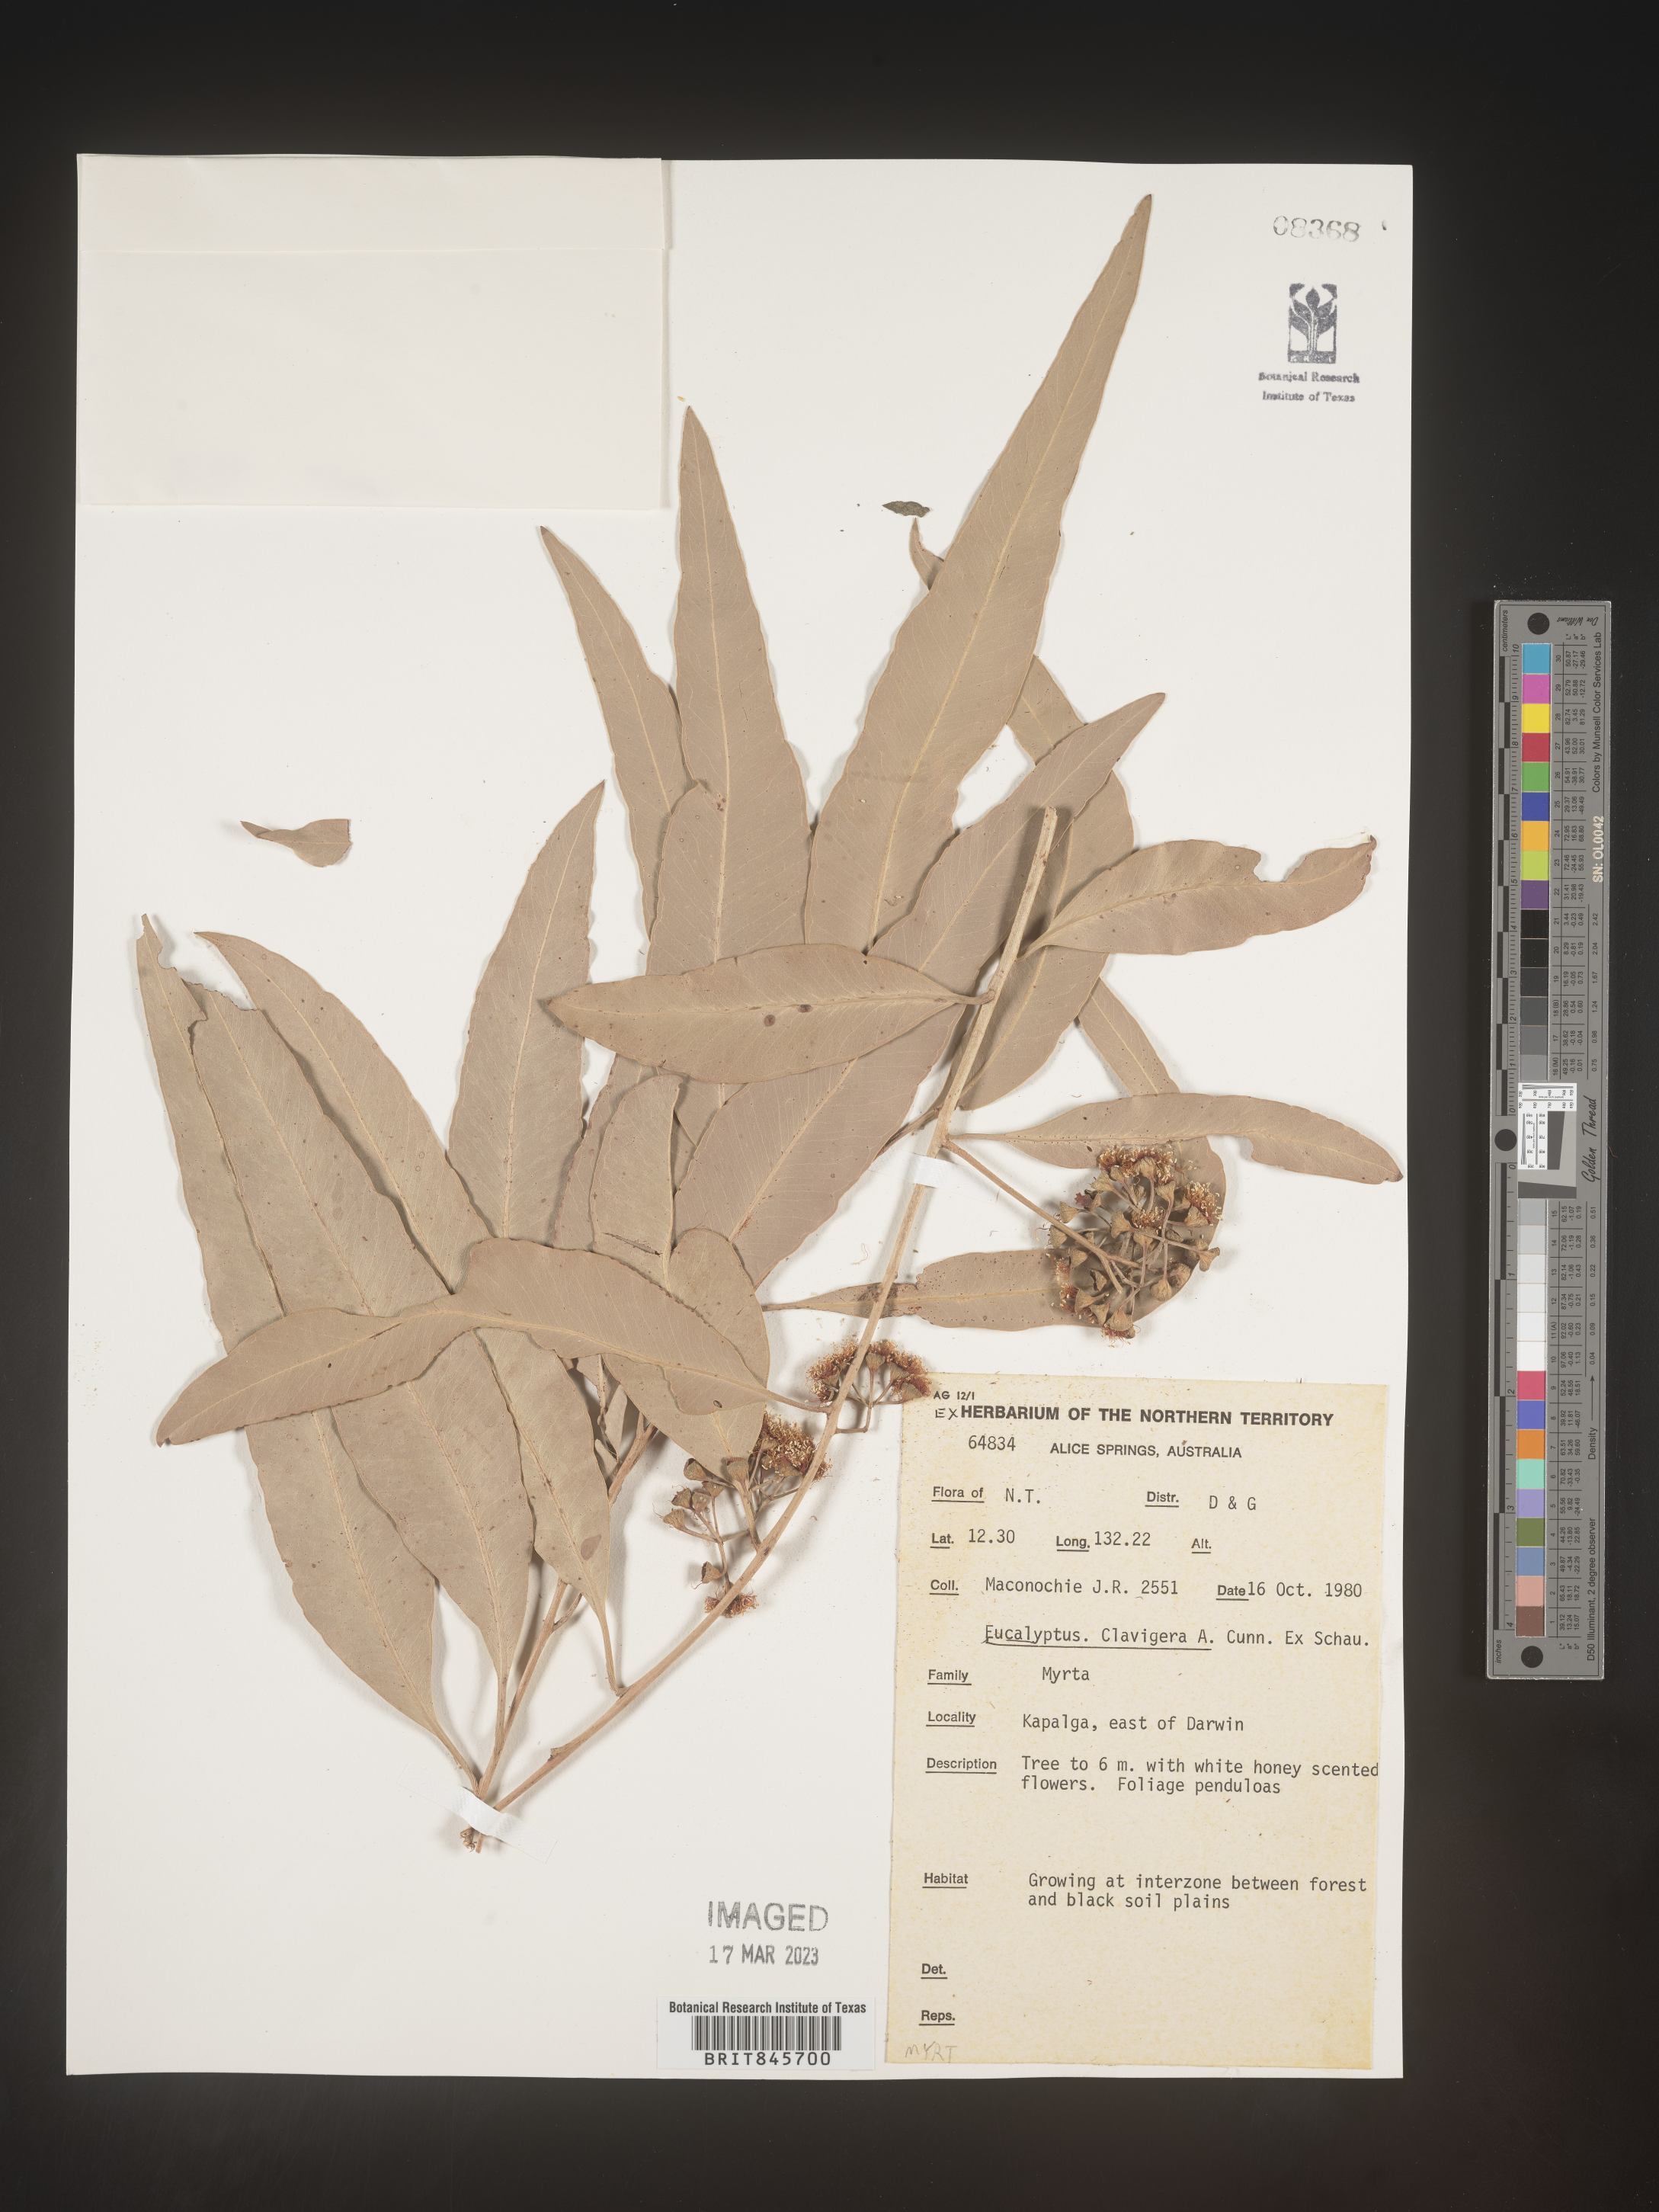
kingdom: Plantae
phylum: Tracheophyta
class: Magnoliopsida
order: Myrtales
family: Myrtaceae
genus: Eucalyptus
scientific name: Eucalyptus
